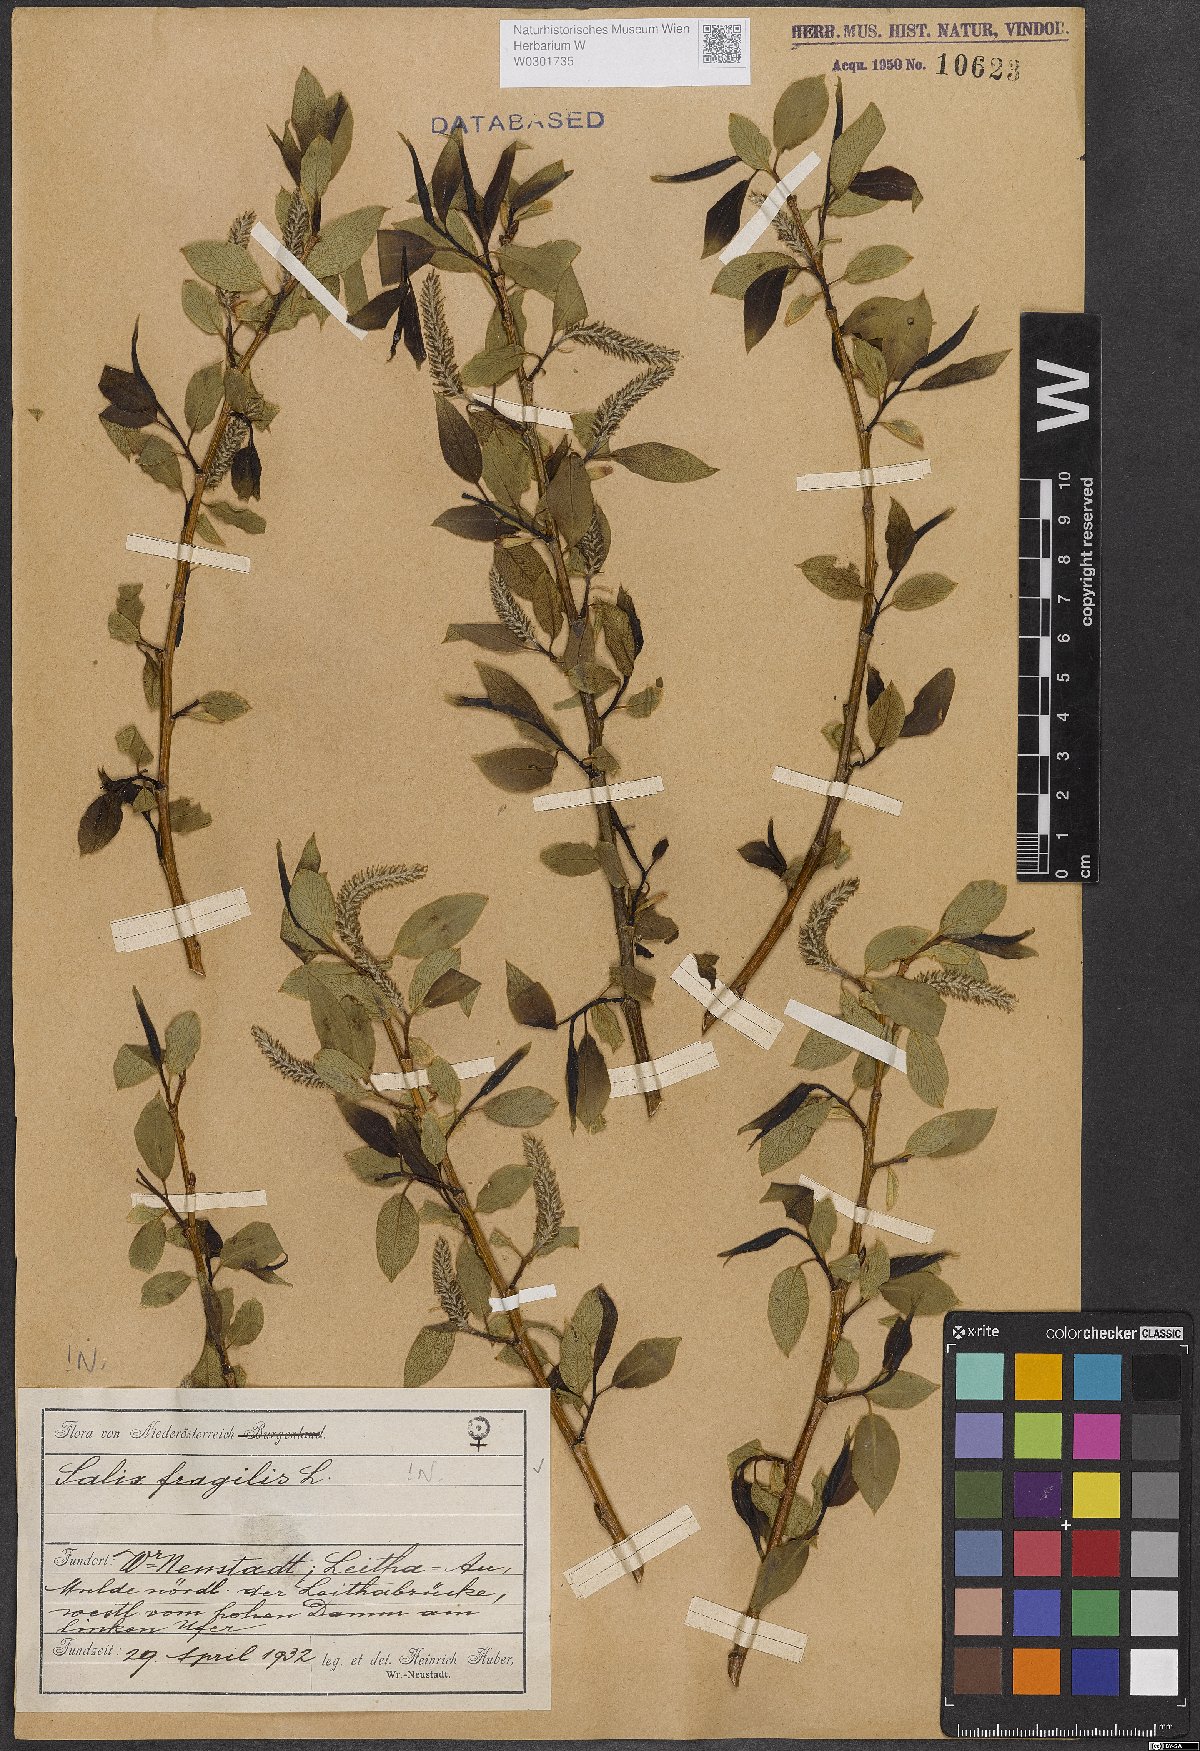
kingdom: Plantae
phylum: Tracheophyta
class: Magnoliopsida
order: Malpighiales
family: Salicaceae
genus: Salix
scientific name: Salix fragilis
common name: Crack willow
